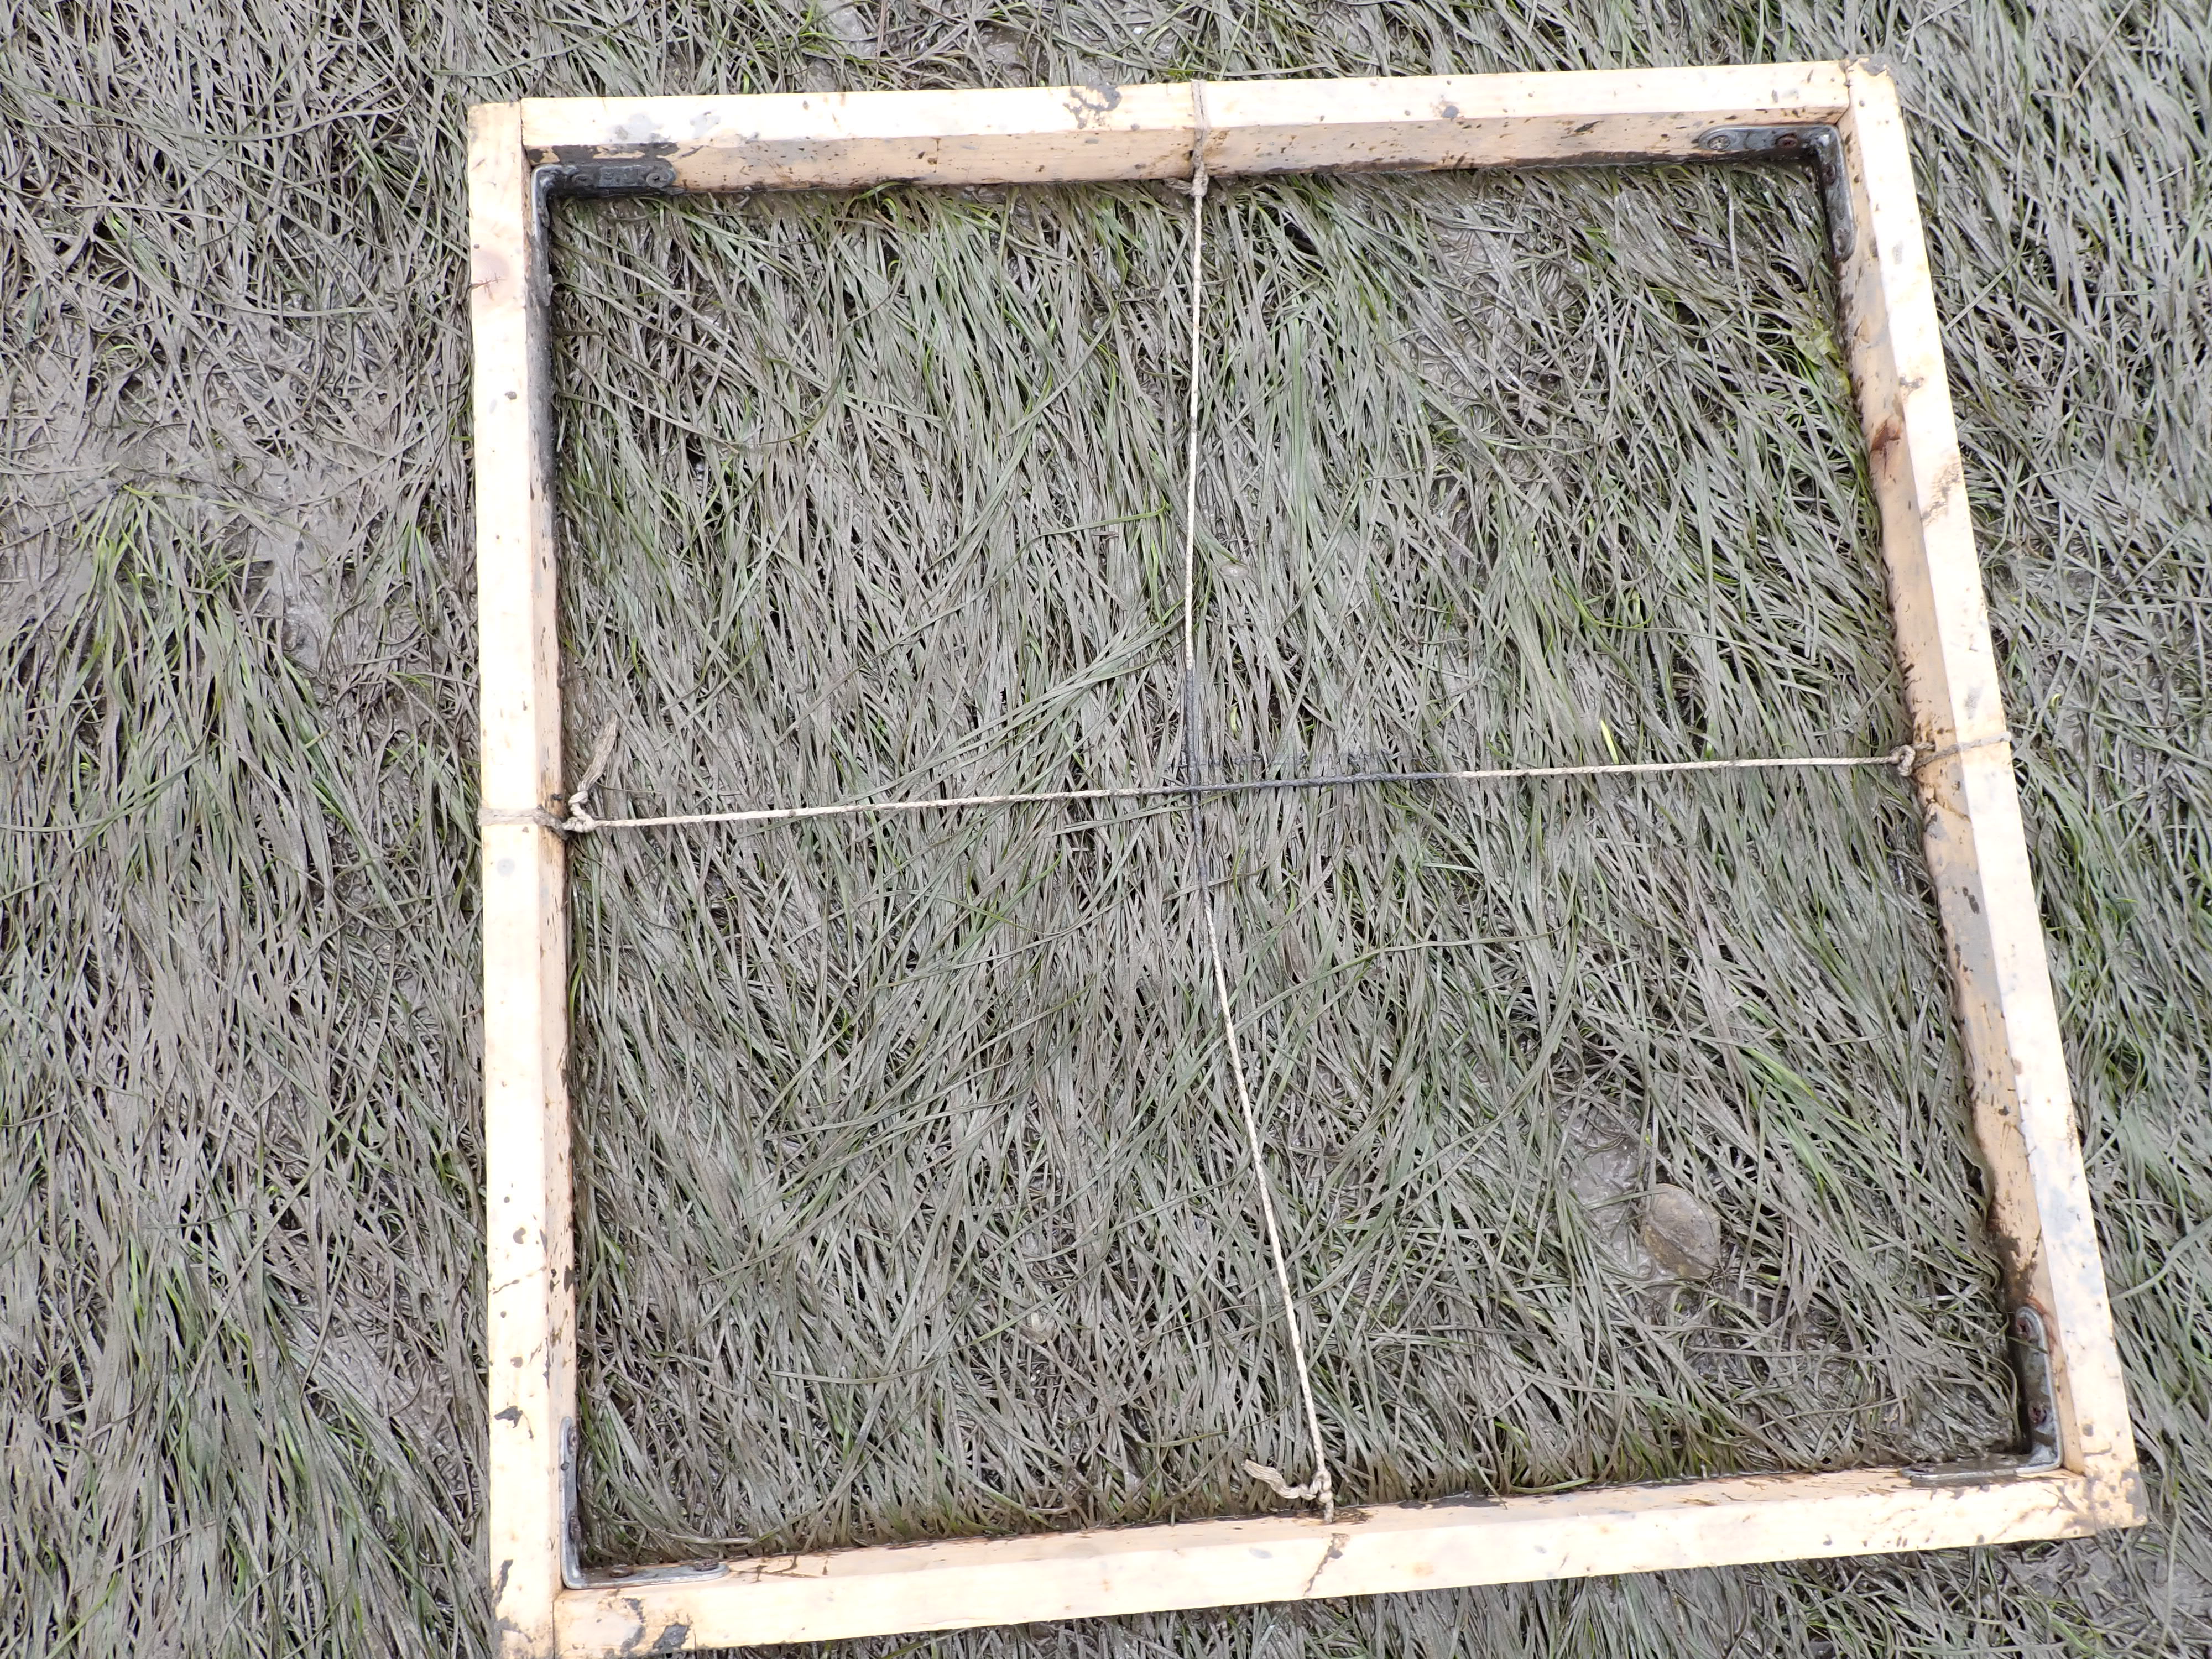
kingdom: Plantae
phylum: Tracheophyta
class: Liliopsida
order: Alismatales
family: Zosteraceae
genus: Zostera
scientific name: Zostera noltii
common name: Dwarf eelgrass
